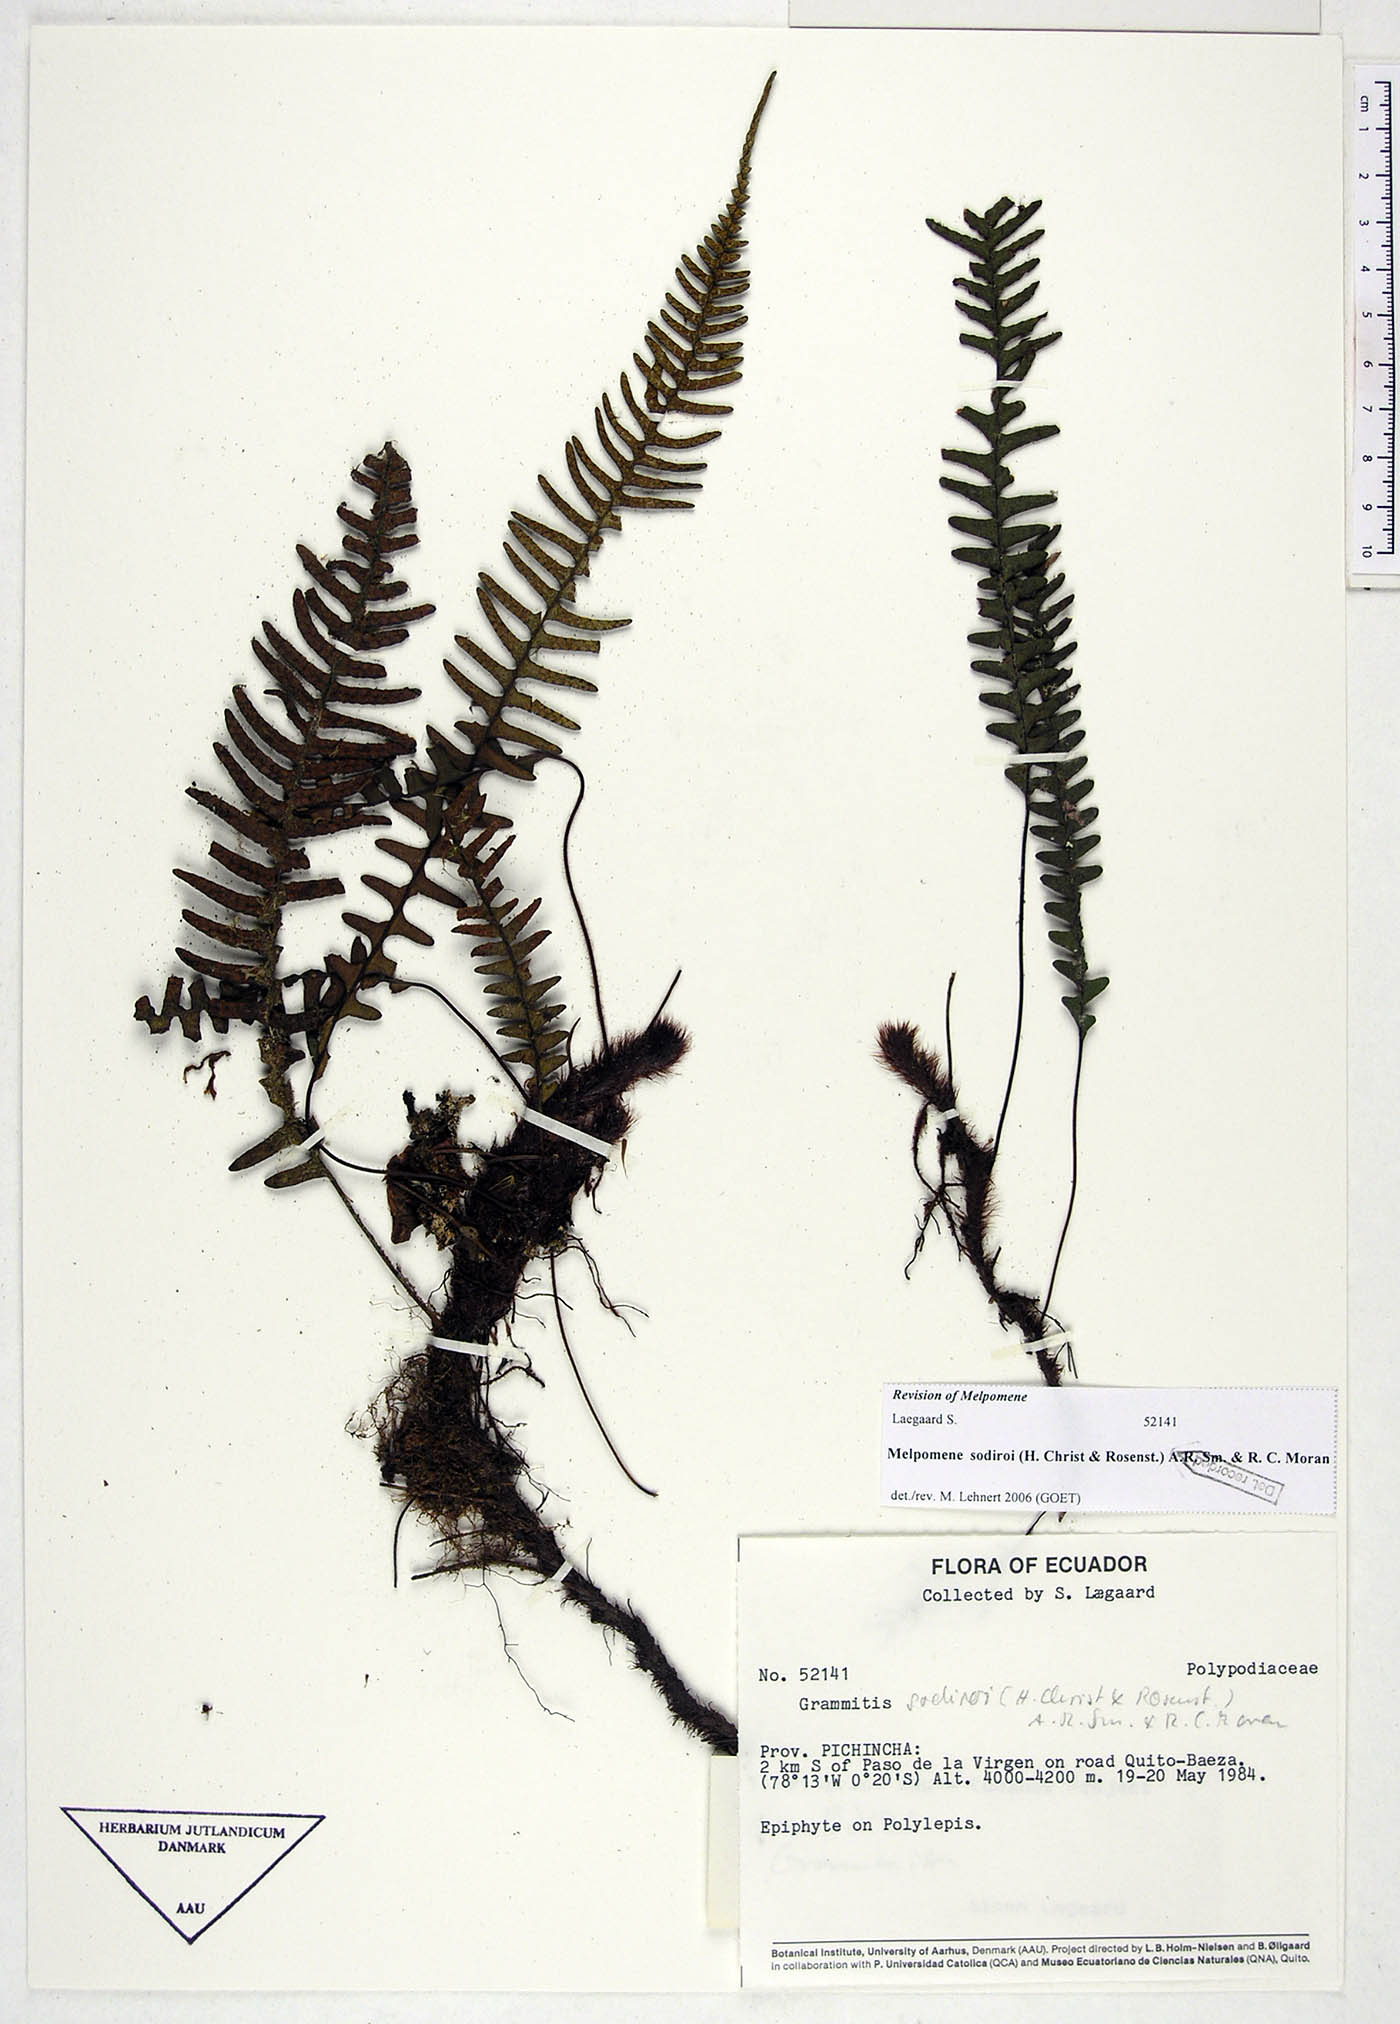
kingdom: Plantae
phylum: Tracheophyta
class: Polypodiopsida
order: Polypodiales
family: Polypodiaceae
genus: Melpomene
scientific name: Melpomene sodiroi
